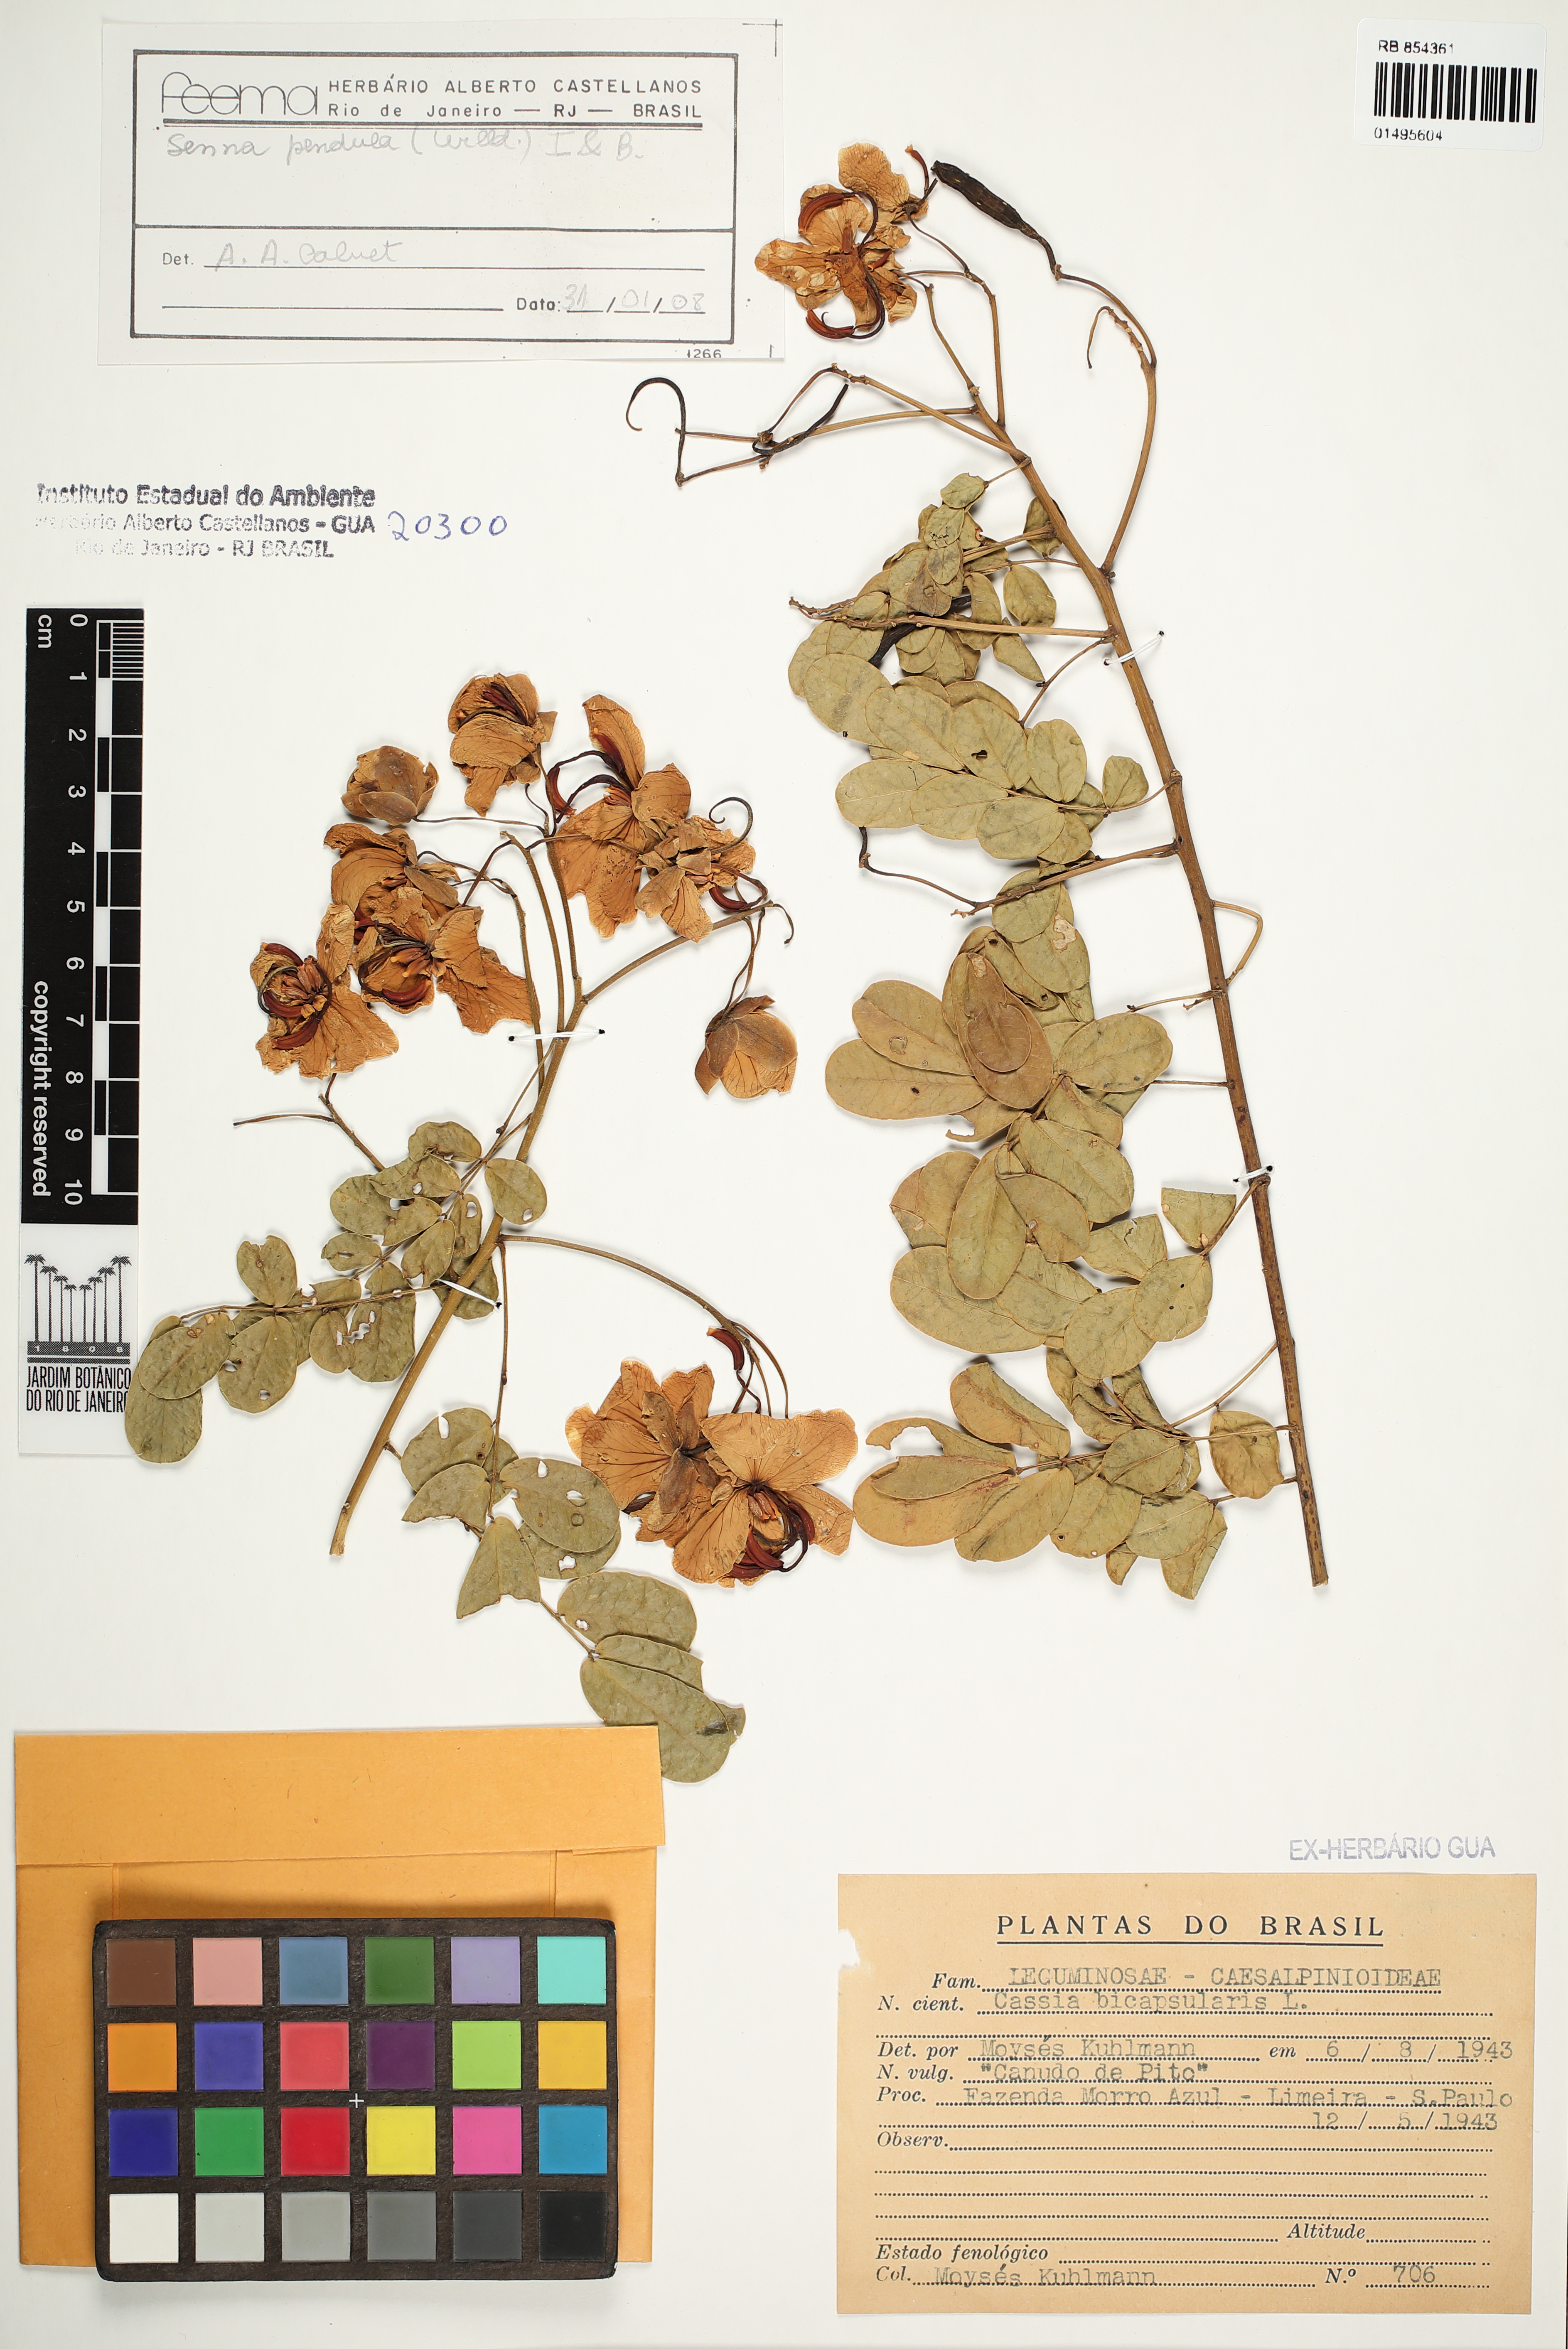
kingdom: Plantae
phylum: Tracheophyta
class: Magnoliopsida
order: Fabales
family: Fabaceae
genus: Senna
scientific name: Senna pendula
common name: Easter cassia
